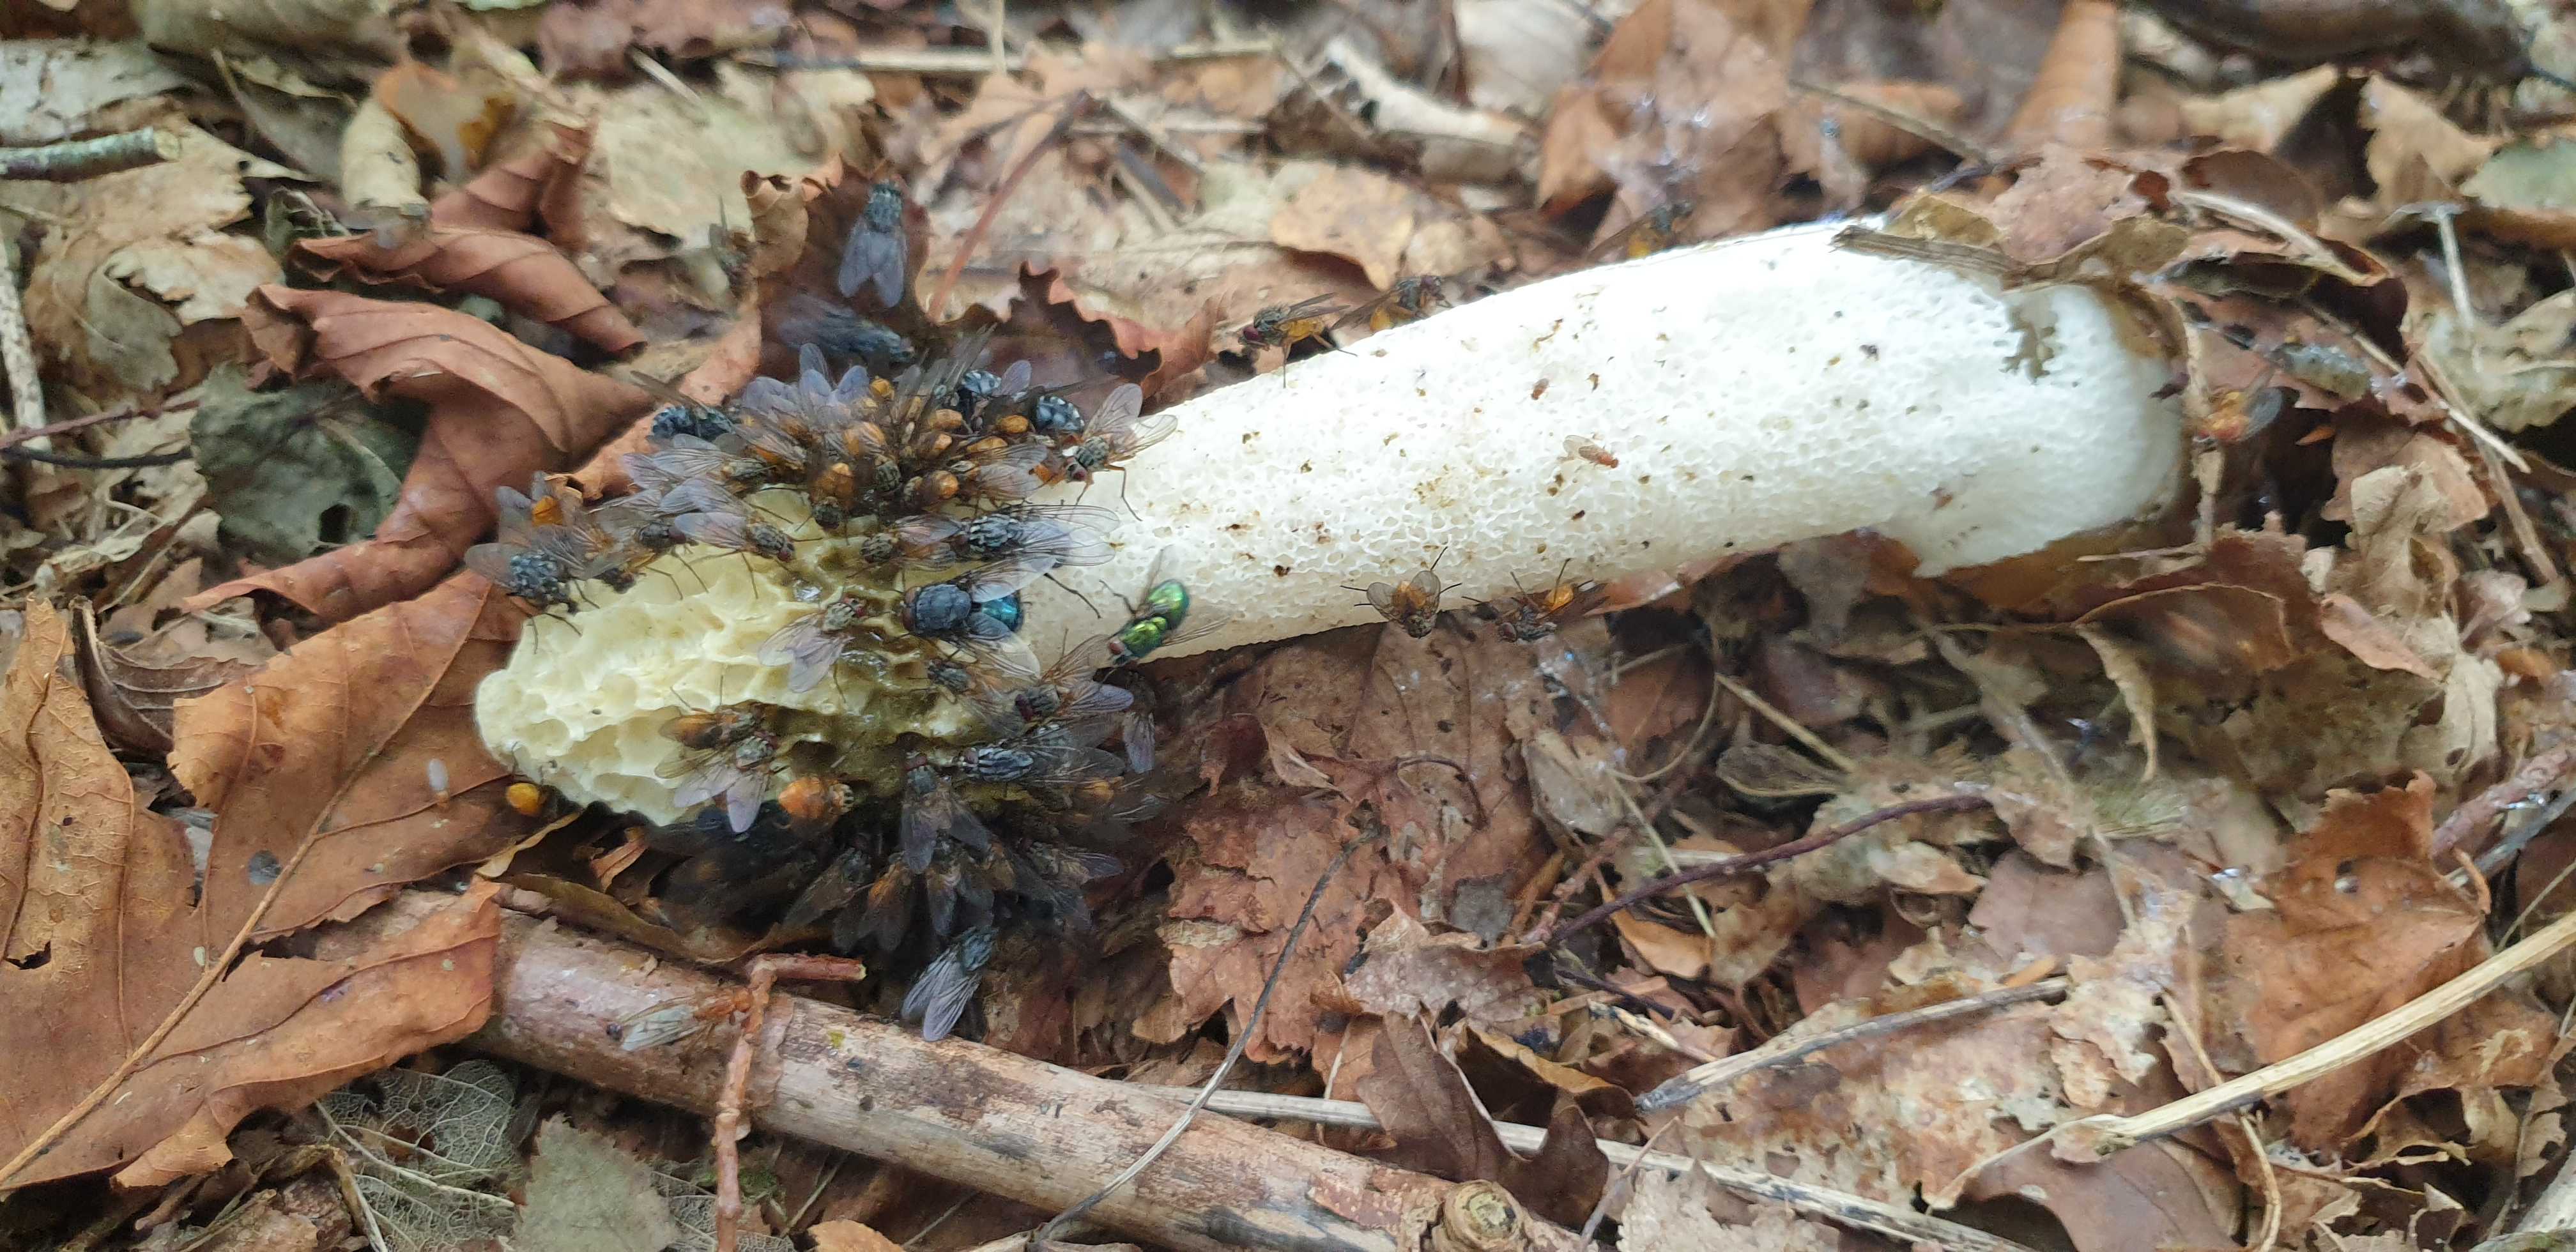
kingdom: Fungi
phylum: Basidiomycota
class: Agaricomycetes
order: Phallales
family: Phallaceae
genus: Phallus
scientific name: Phallus impudicus
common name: almindelig stinksvamp
